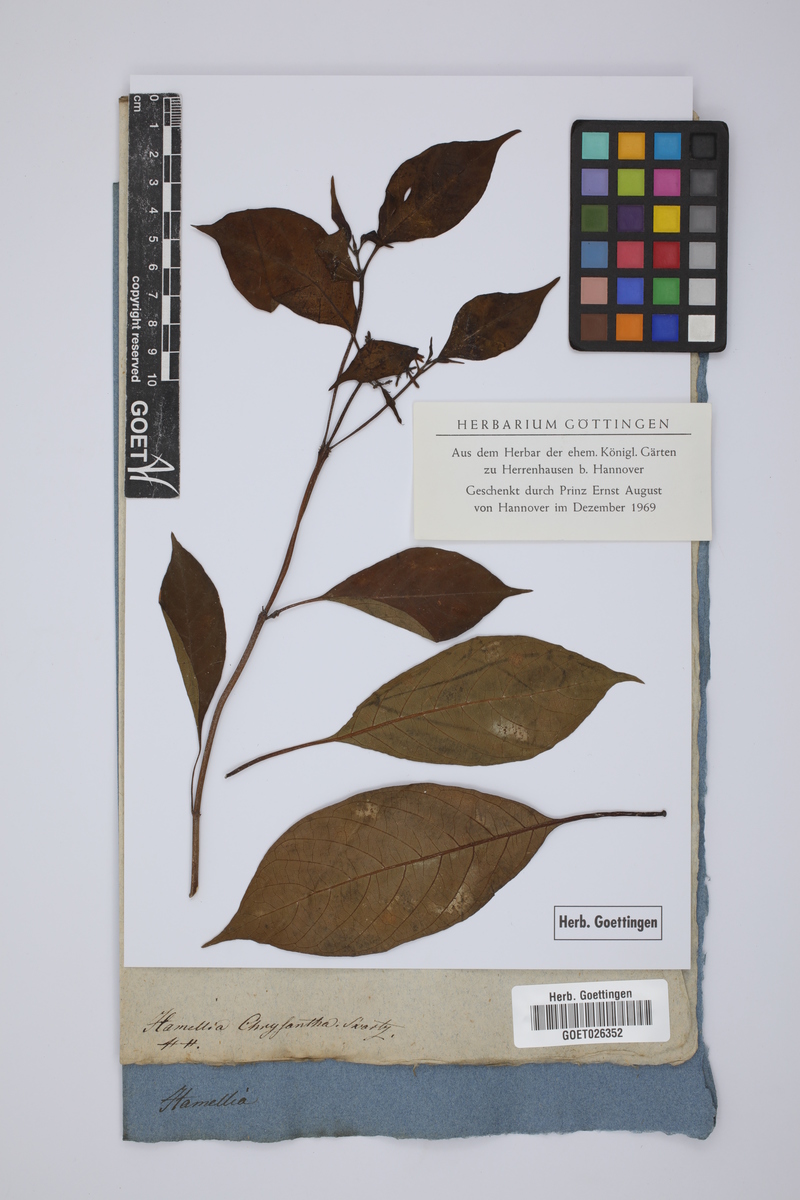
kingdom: Plantae
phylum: Tracheophyta
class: Magnoliopsida
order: Gentianales
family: Rubiaceae
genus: Hamelia
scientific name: Hamelia chrysantha
